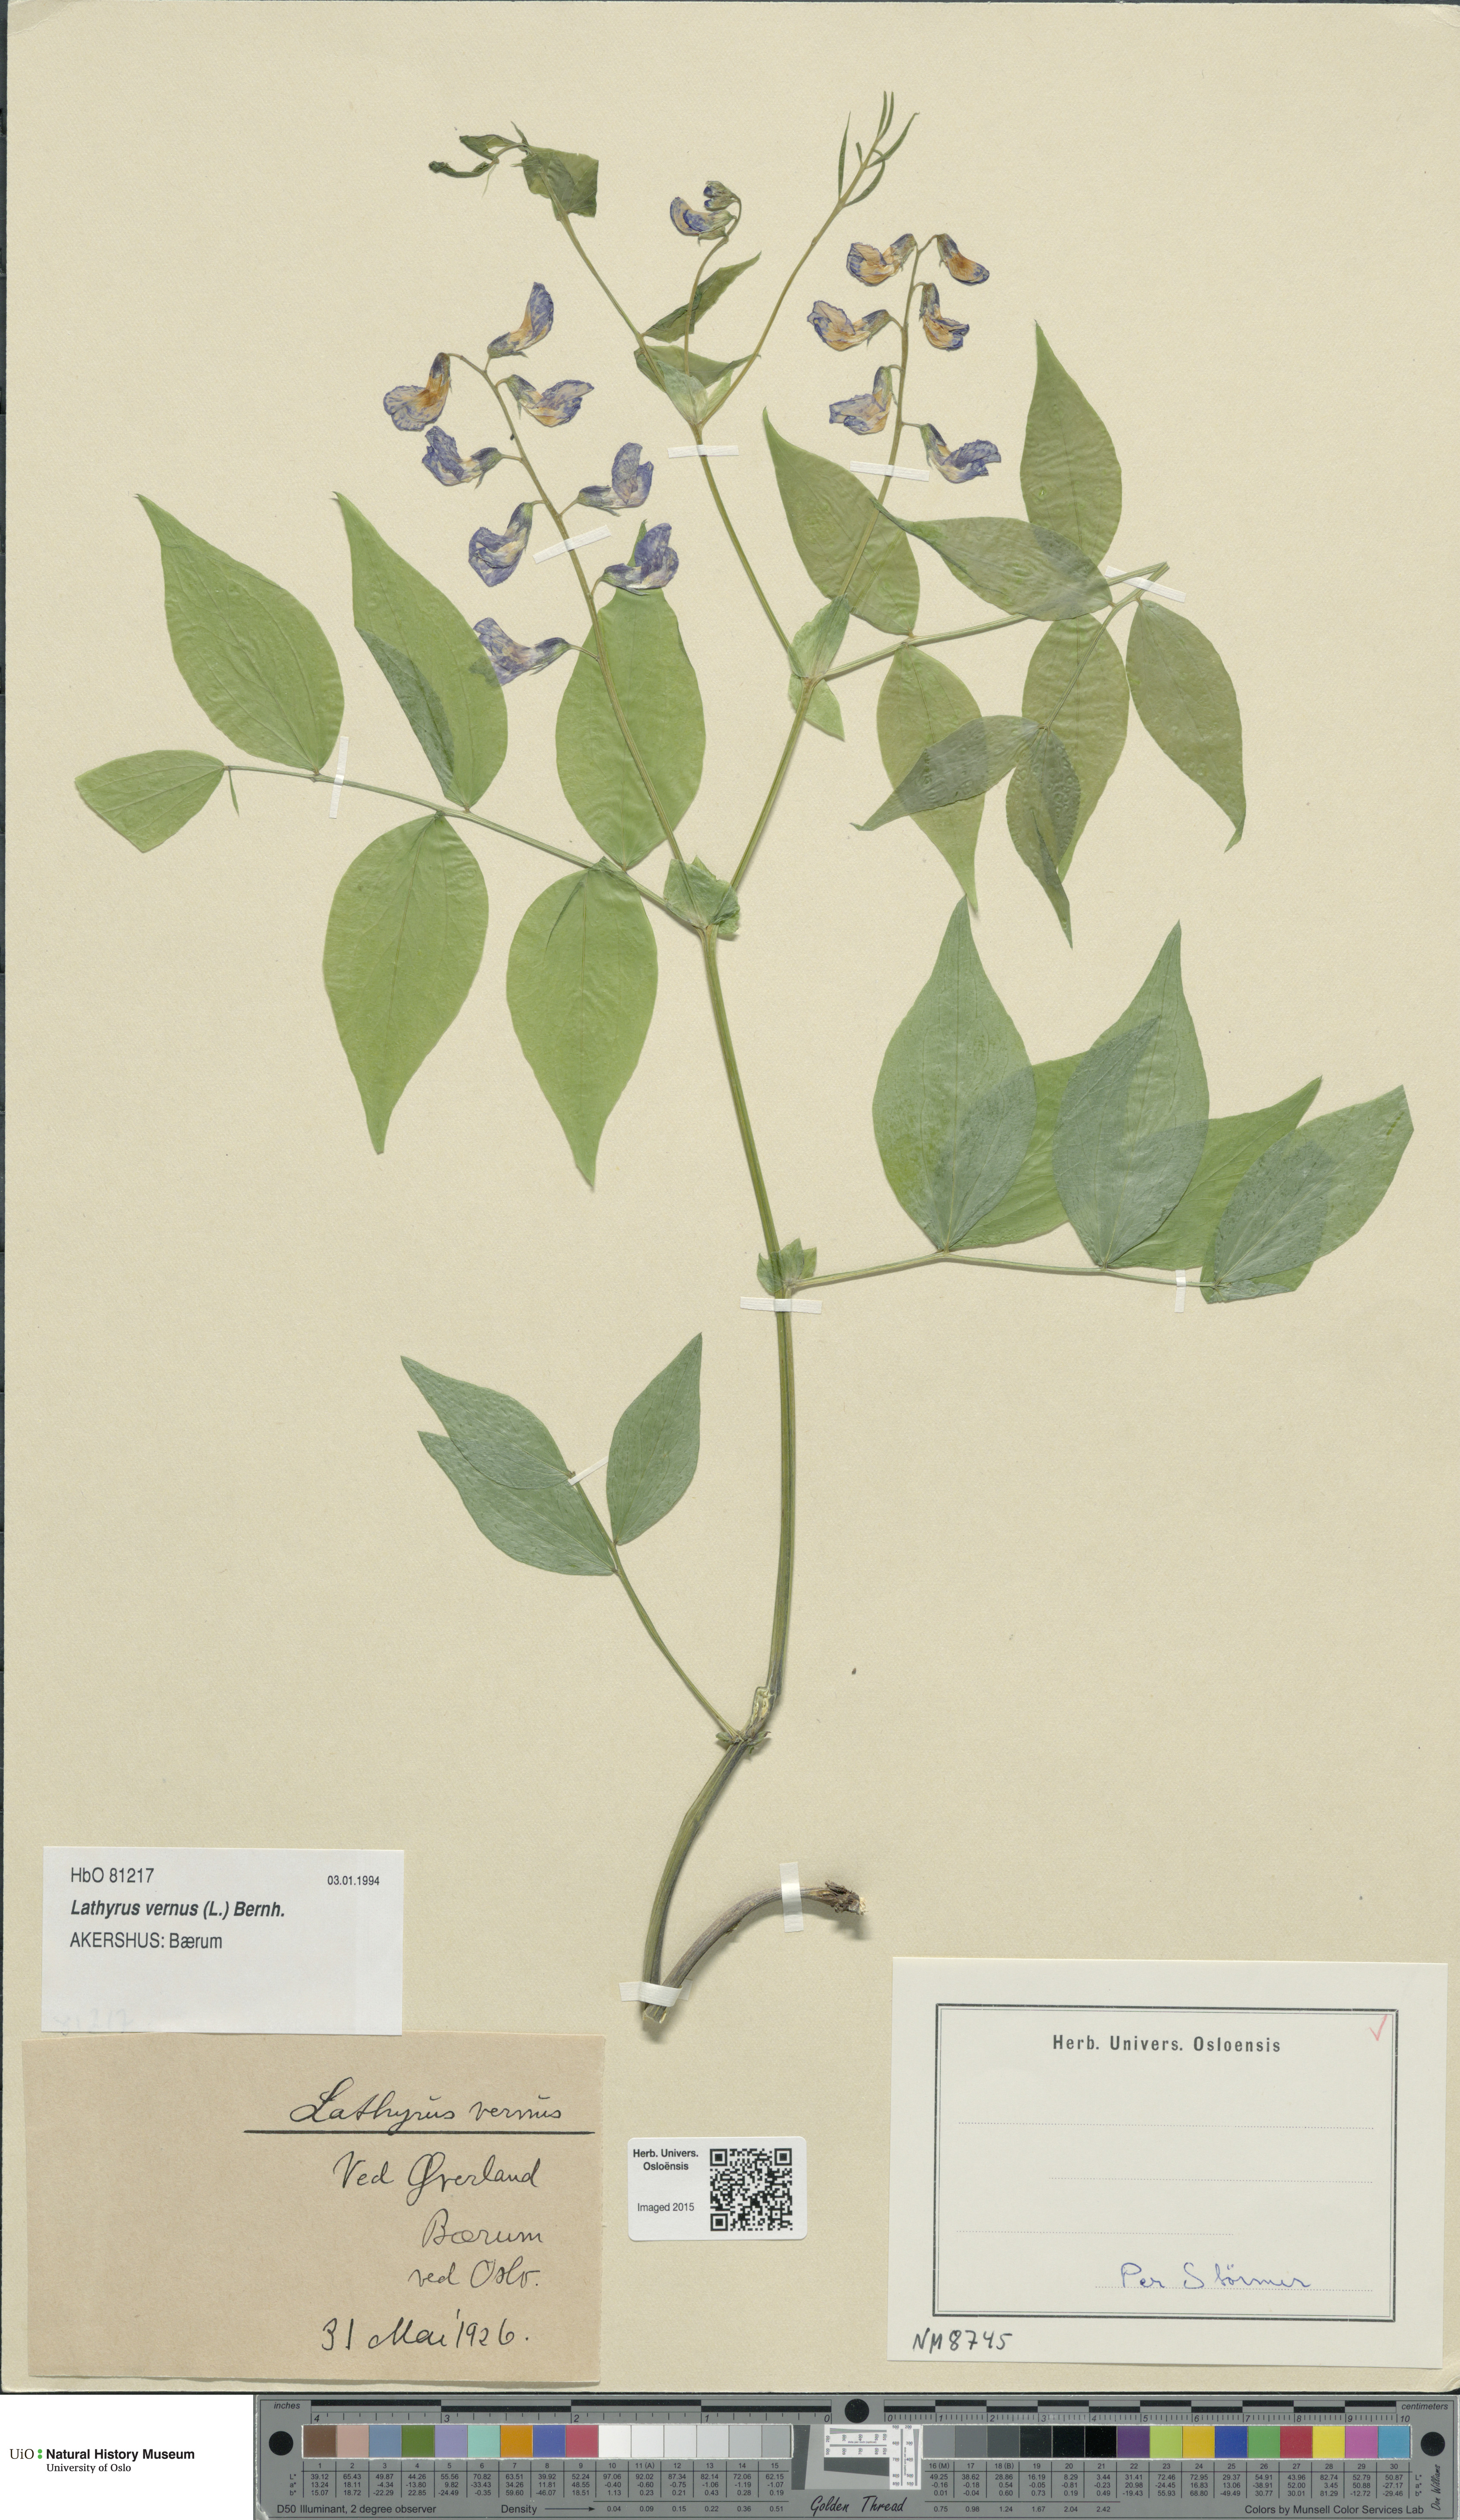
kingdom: Plantae
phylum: Tracheophyta
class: Magnoliopsida
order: Fabales
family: Fabaceae
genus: Lathyrus
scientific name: Lathyrus vernus
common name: Spring pea
